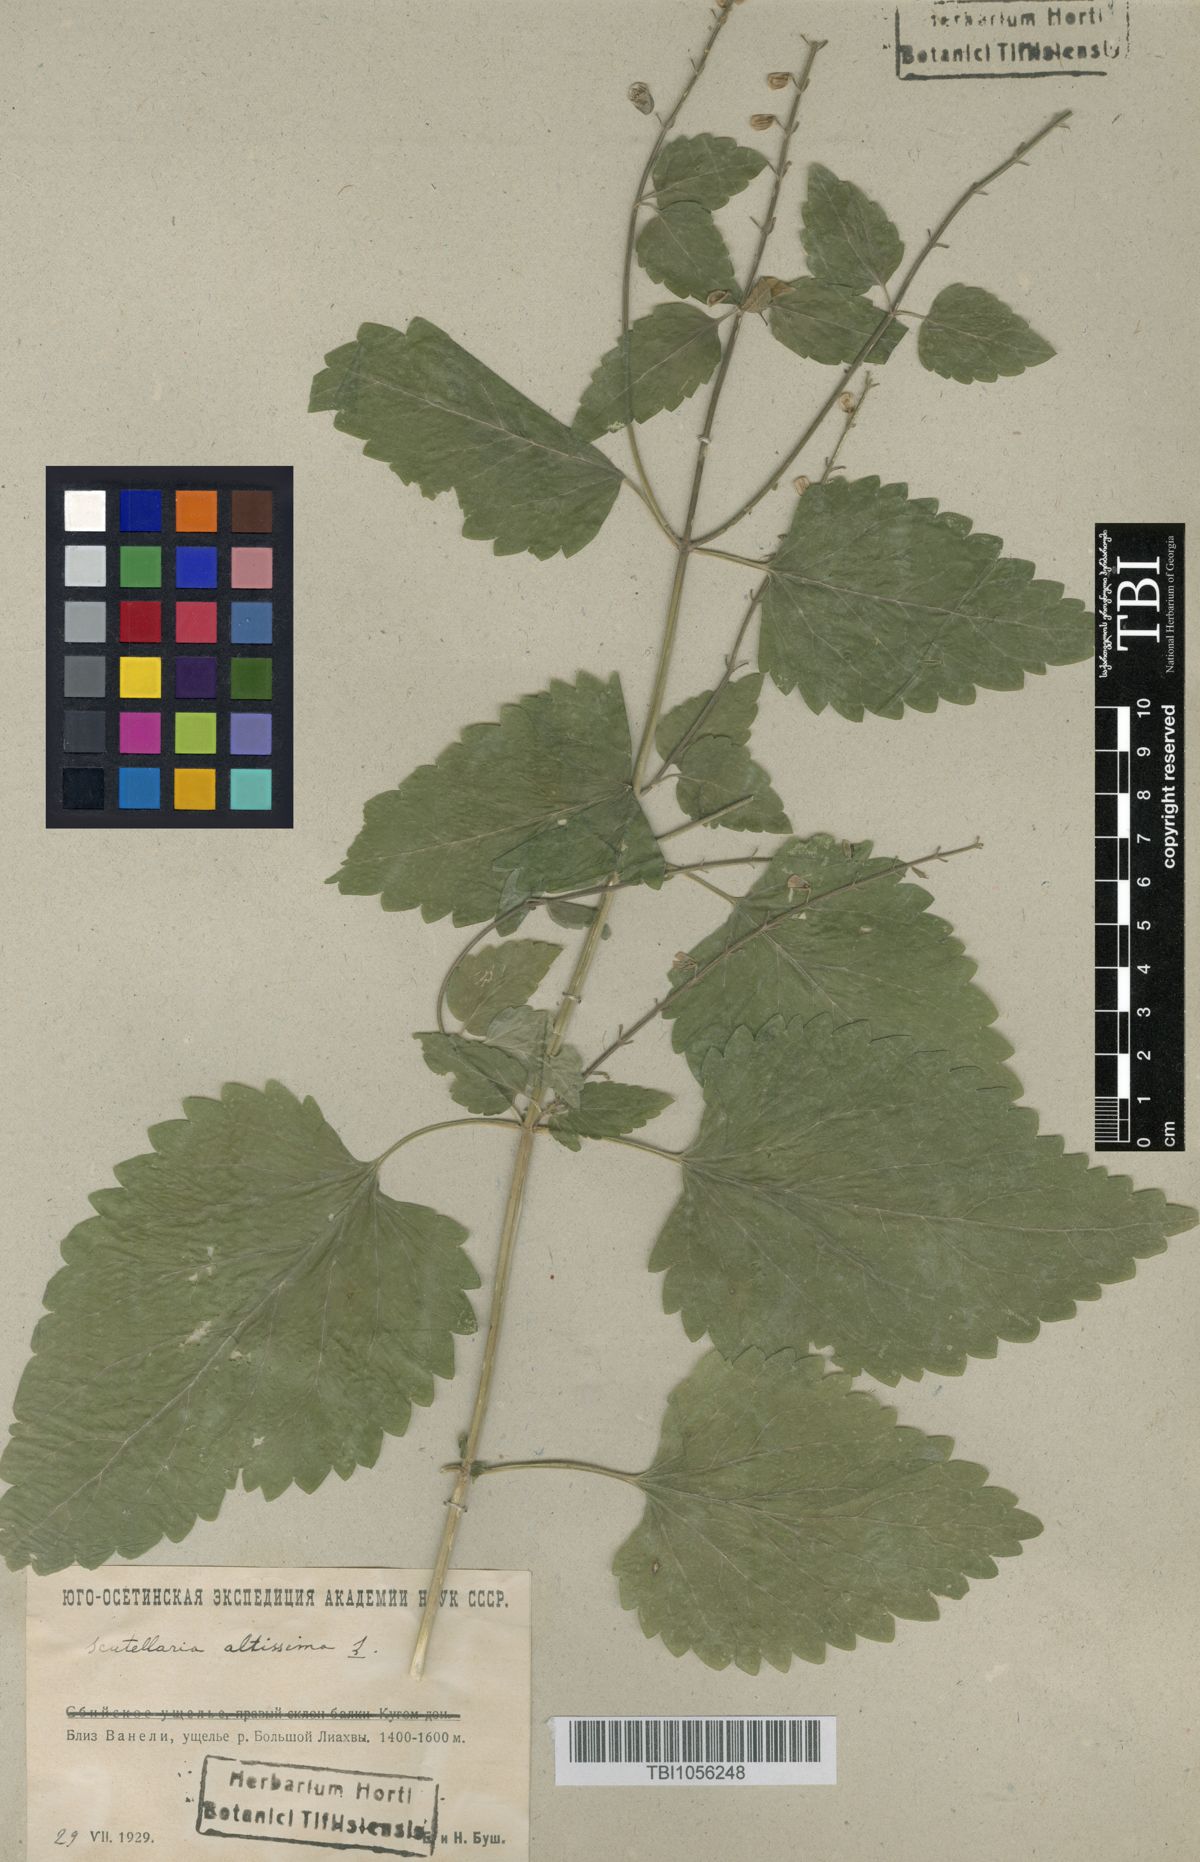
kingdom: Plantae
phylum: Tracheophyta
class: Magnoliopsida
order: Lamiales
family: Lamiaceae
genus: Scutellaria
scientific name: Scutellaria altissima
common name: Somerset skullcap
